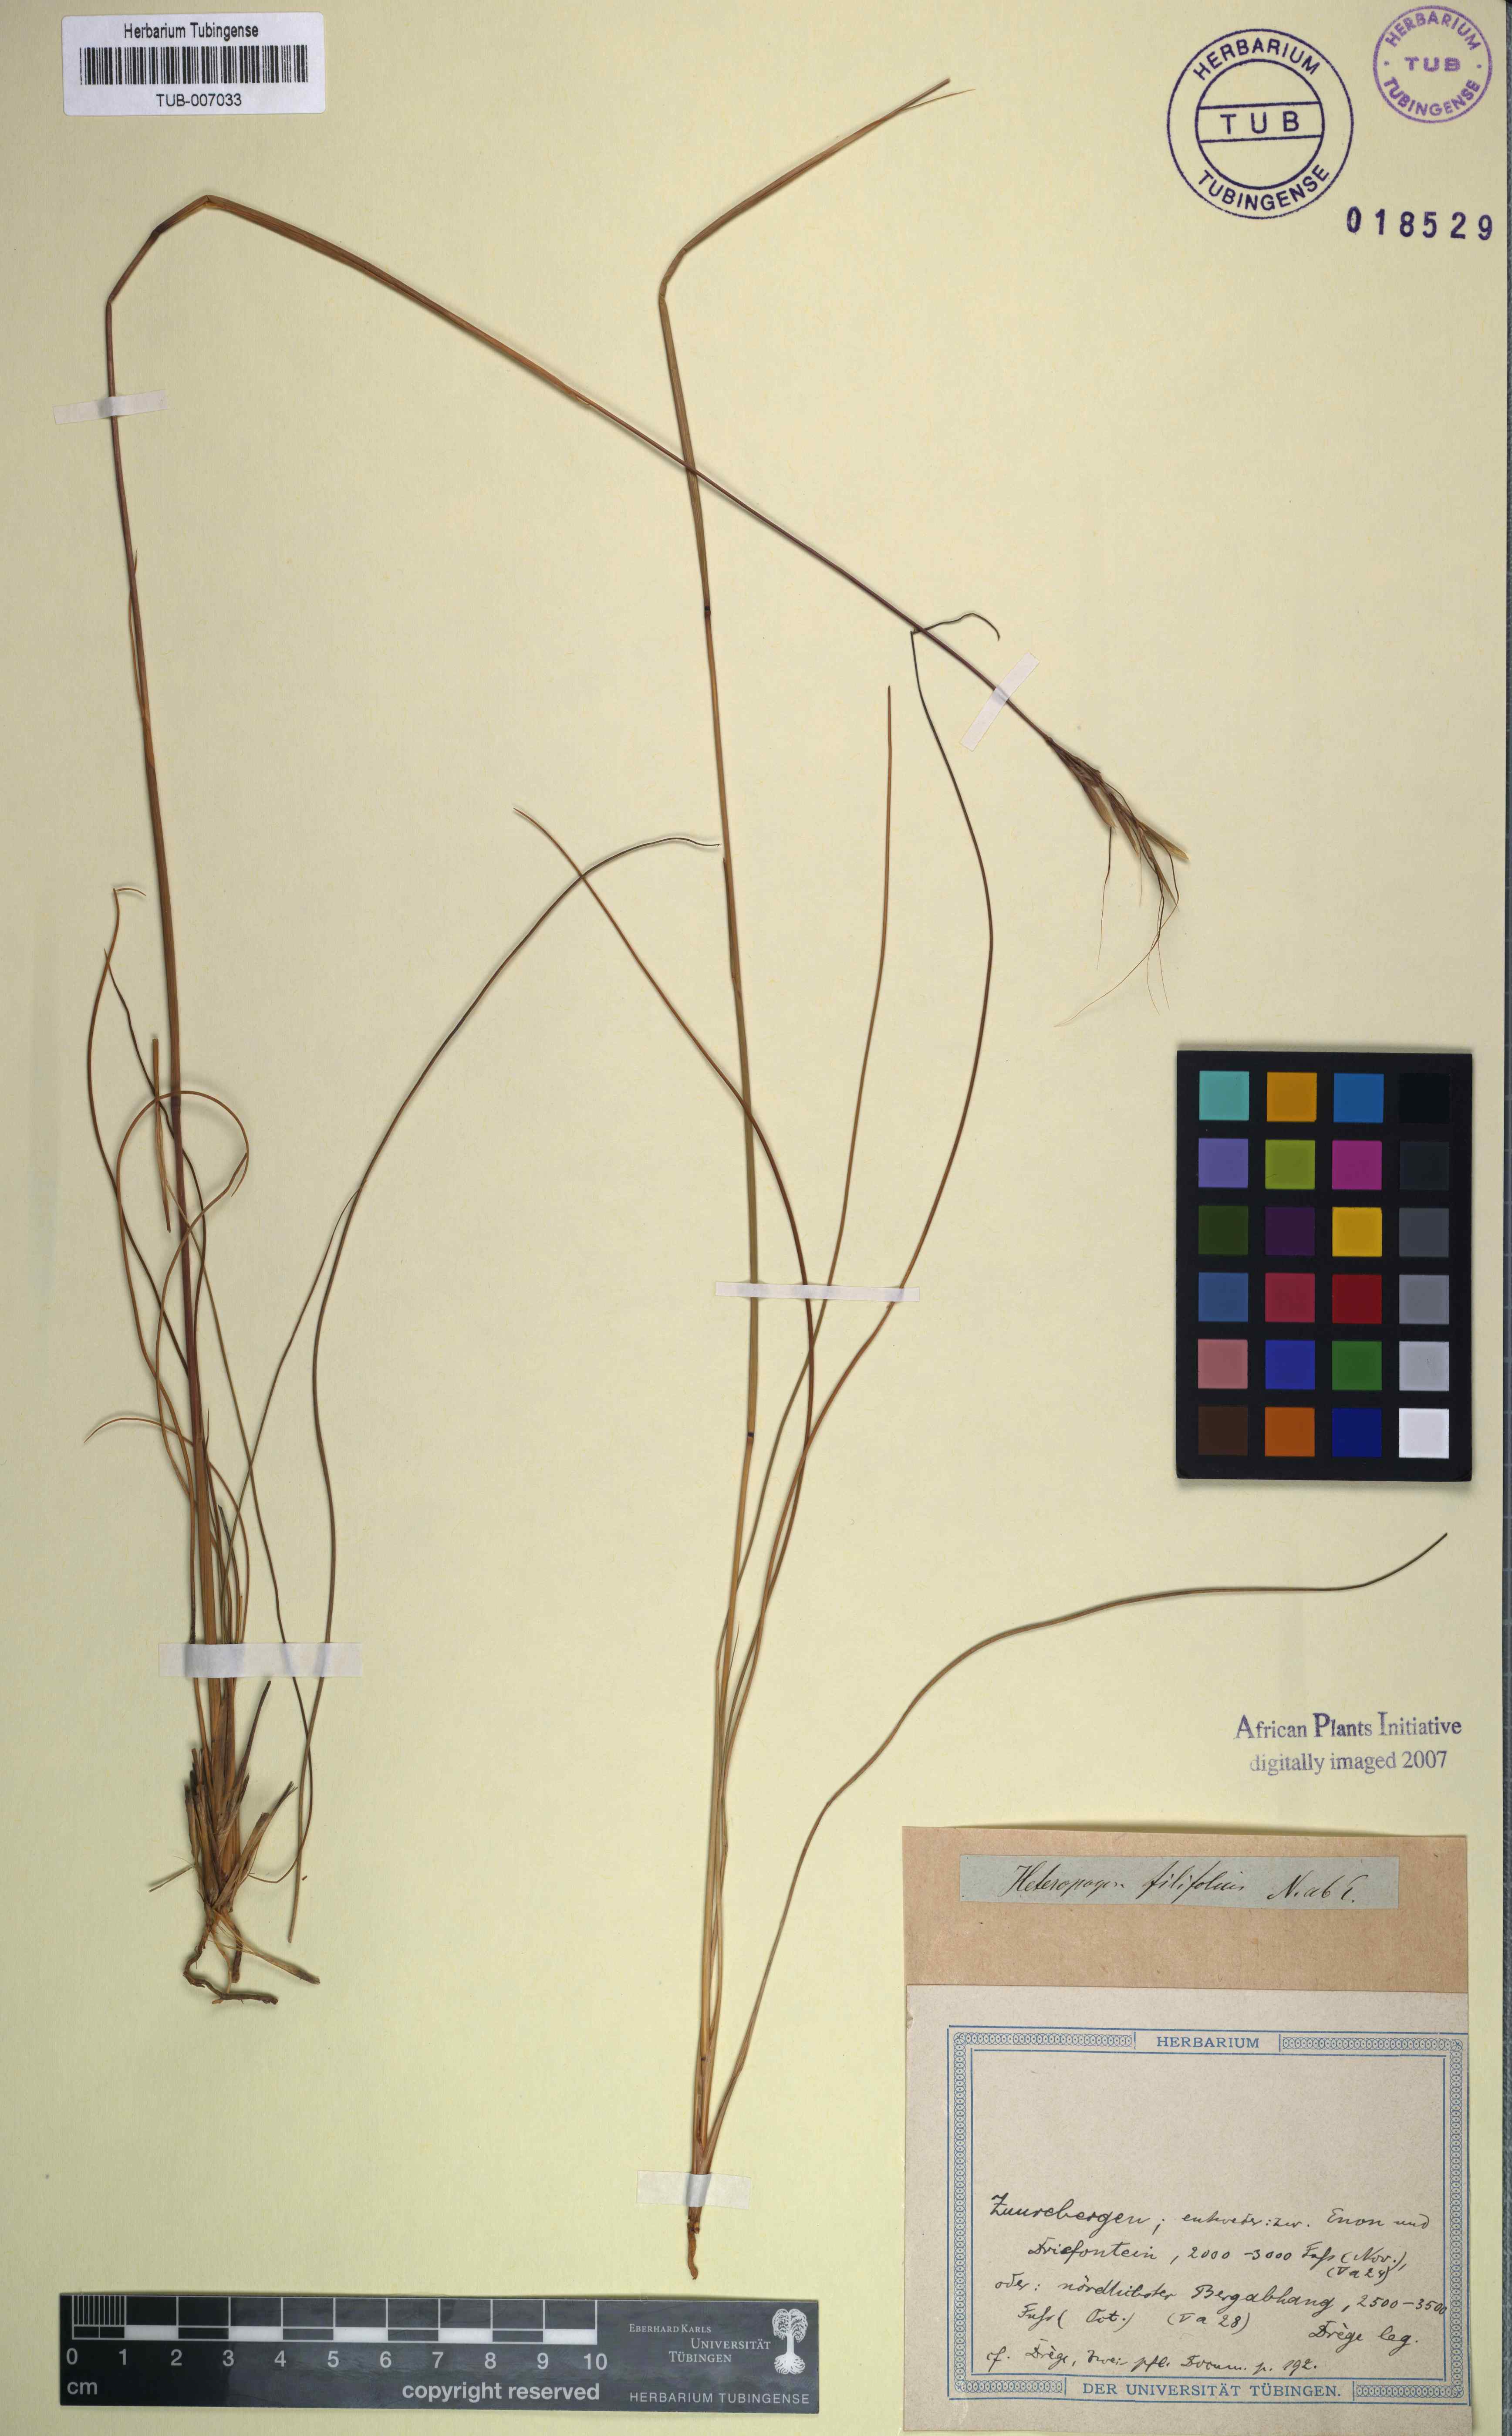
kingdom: Plantae
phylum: Tracheophyta
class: Liliopsida
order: Poales
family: Poaceae
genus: Diheteropogon
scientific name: Diheteropogon filifolius
